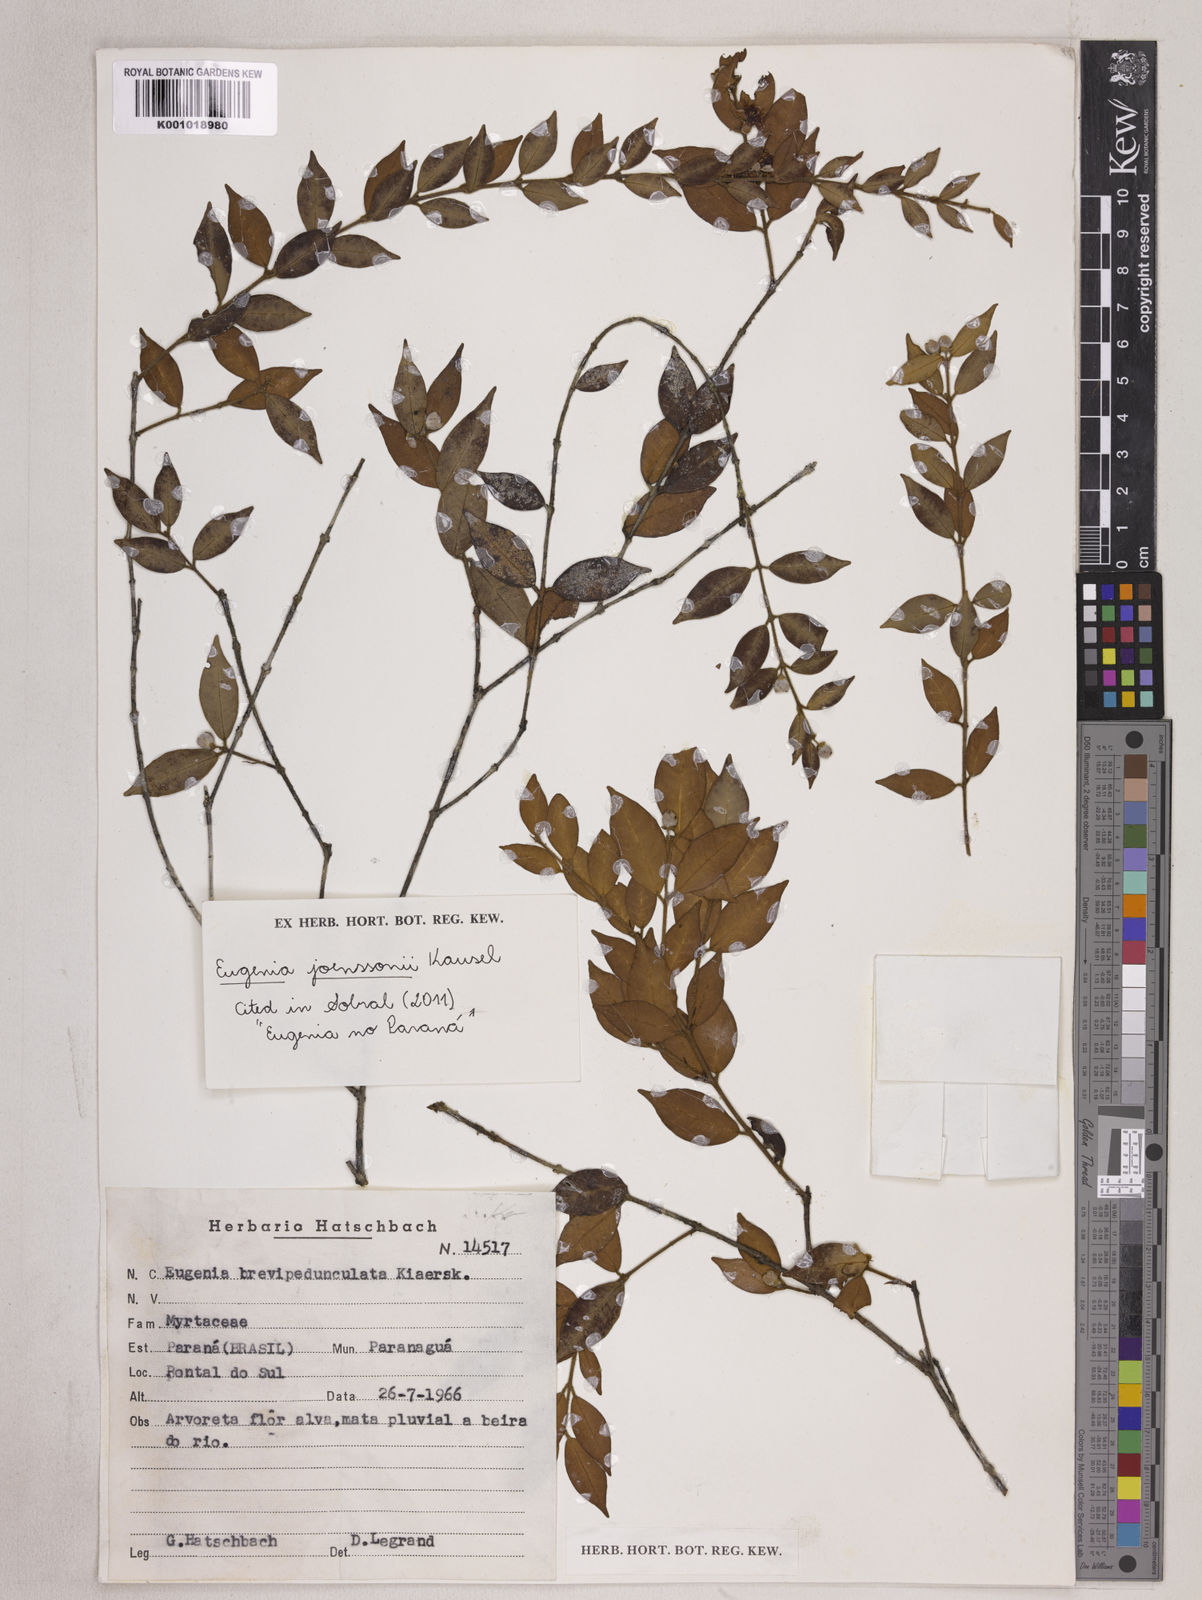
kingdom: Plantae
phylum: Tracheophyta
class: Magnoliopsida
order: Myrtales
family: Myrtaceae
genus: Eugenia
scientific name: Eugenia joenssonii
